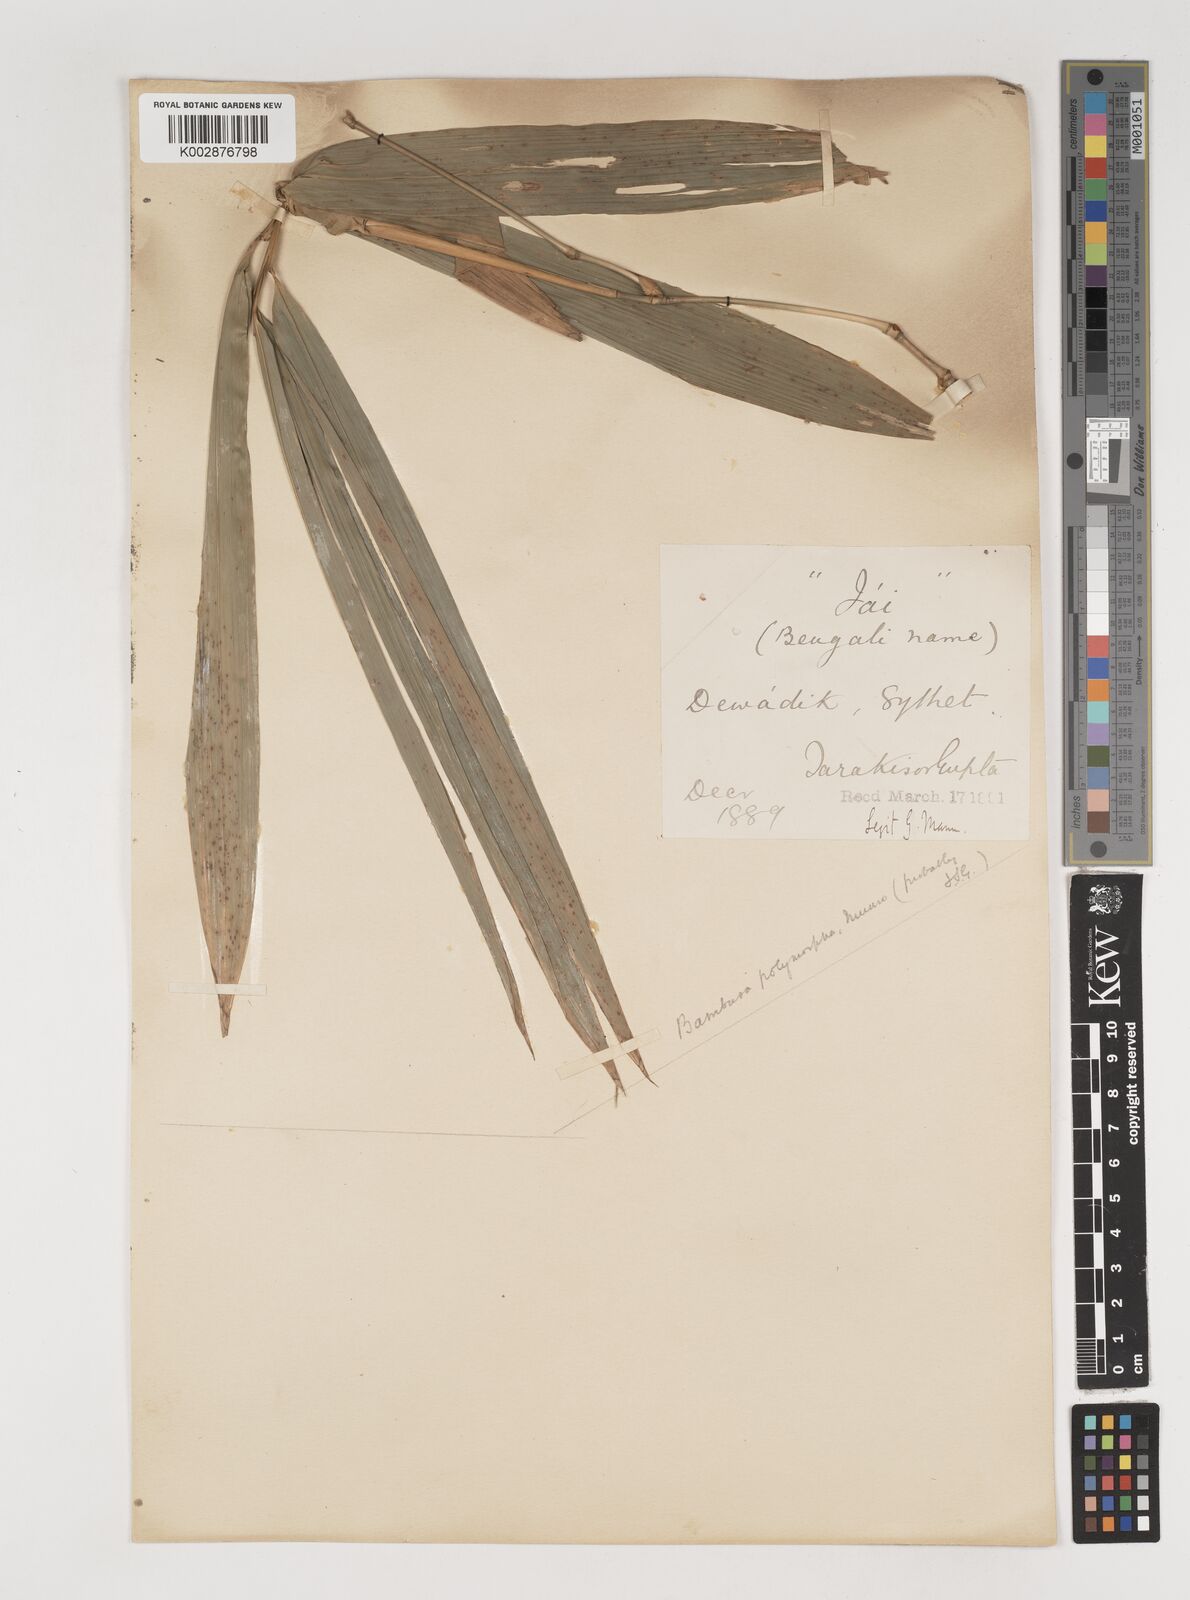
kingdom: Plantae
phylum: Tracheophyta
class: Liliopsida
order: Poales
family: Poaceae
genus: Bambusa
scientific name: Bambusa polymorpha
